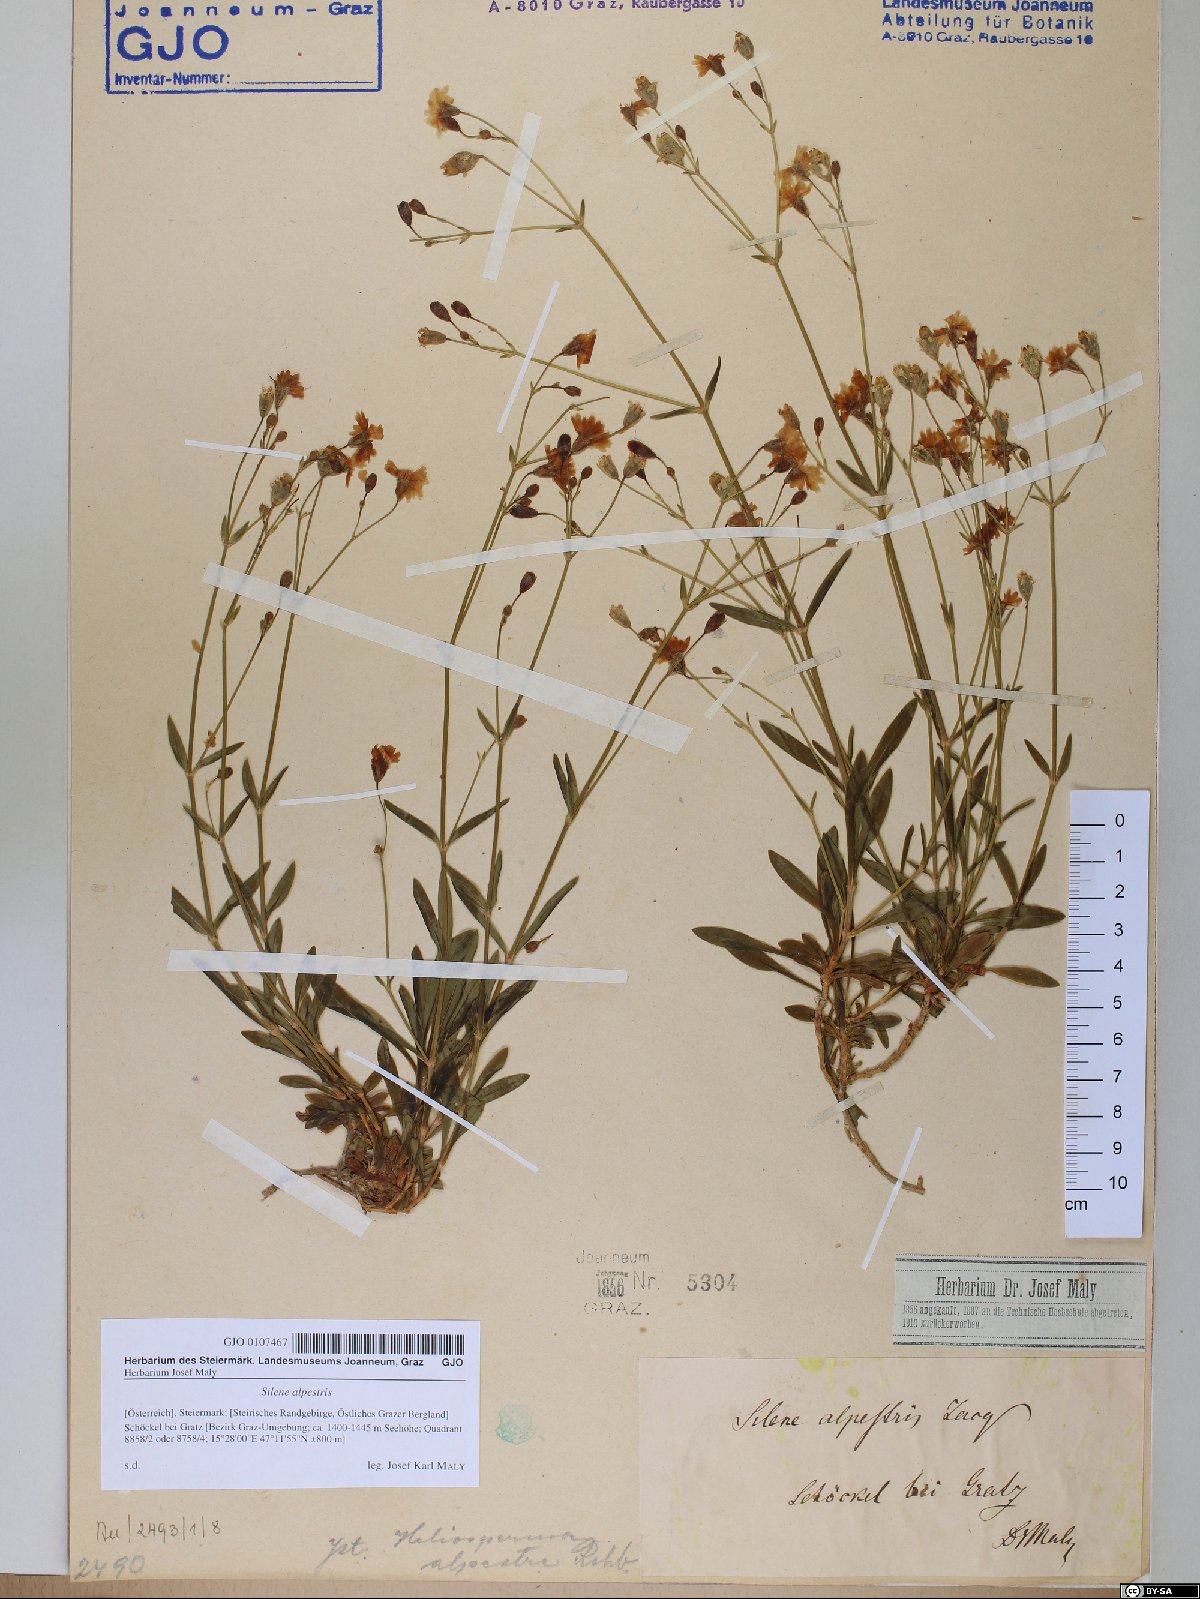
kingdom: Plantae
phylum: Tracheophyta
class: Magnoliopsida
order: Caryophyllales
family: Caryophyllaceae
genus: Heliosperma
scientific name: Heliosperma alpestre
